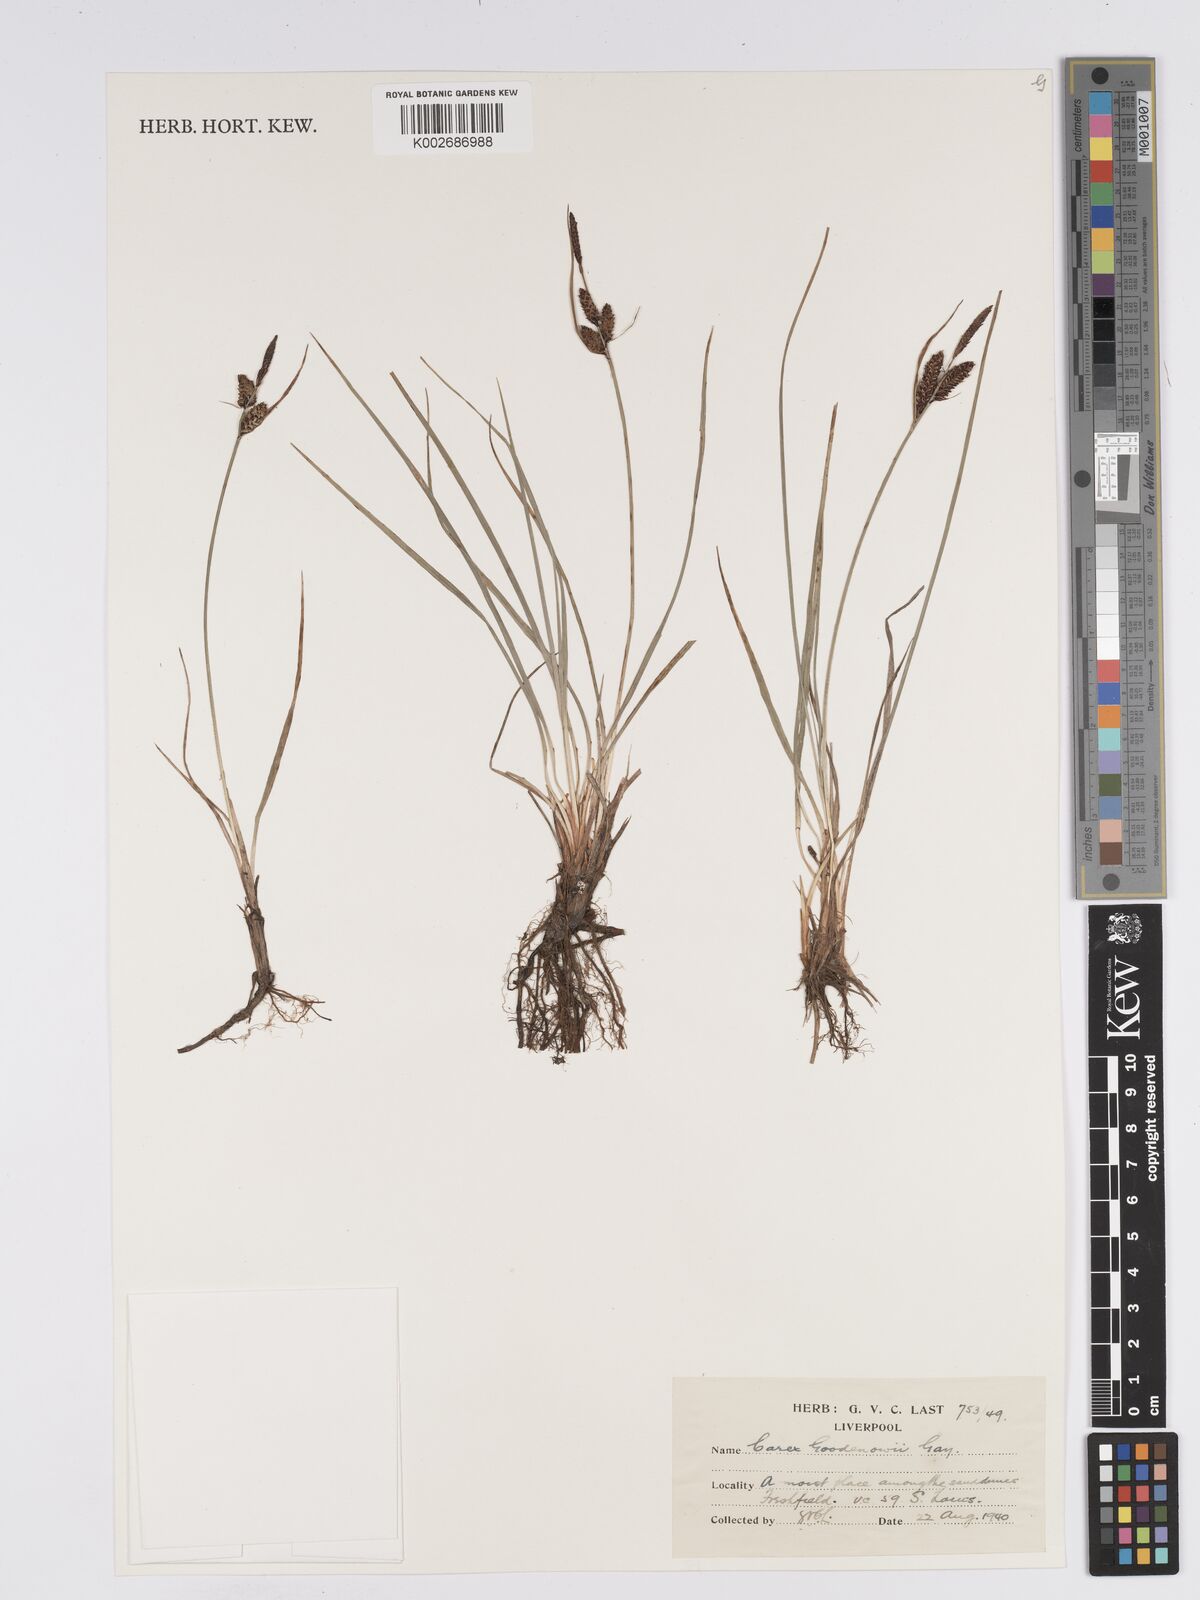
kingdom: Plantae
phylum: Tracheophyta
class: Liliopsida
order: Poales
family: Cyperaceae
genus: Carex
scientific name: Carex nigra
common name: Common sedge
